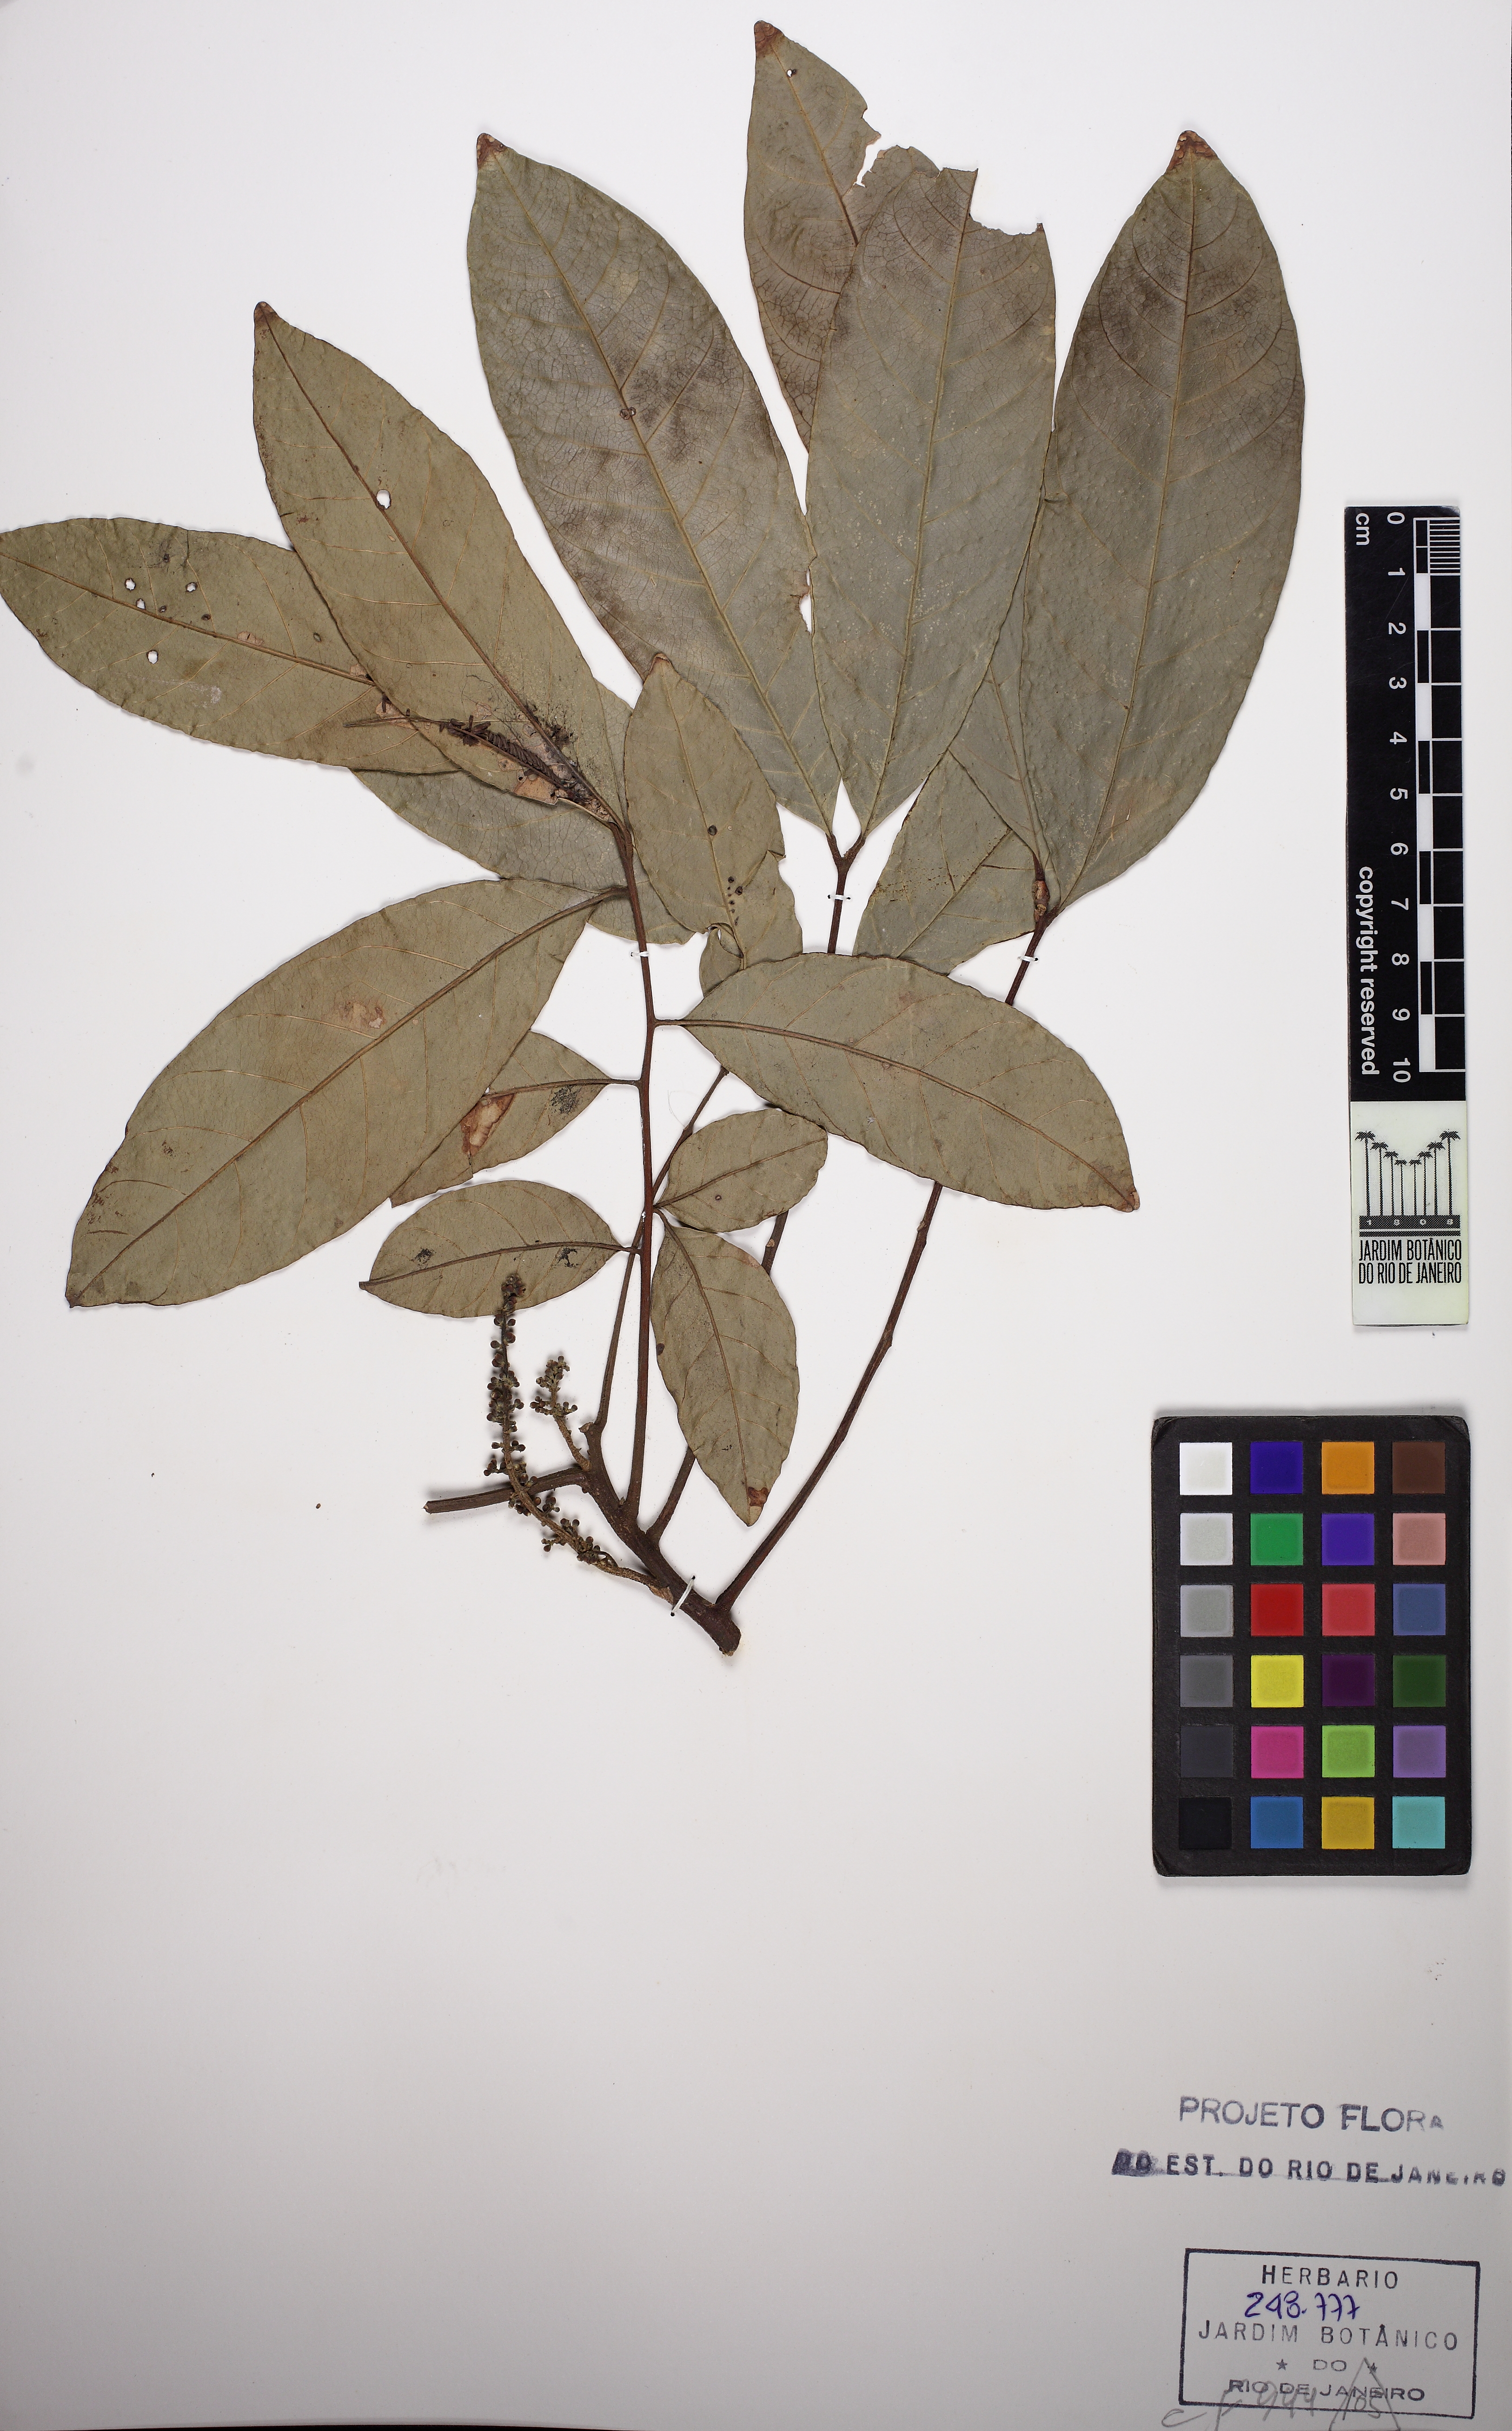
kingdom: Plantae
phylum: Tracheophyta
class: Magnoliopsida
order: Sapindales
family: Meliaceae
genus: Guarea
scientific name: Guarea guidonia
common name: American muskwood
